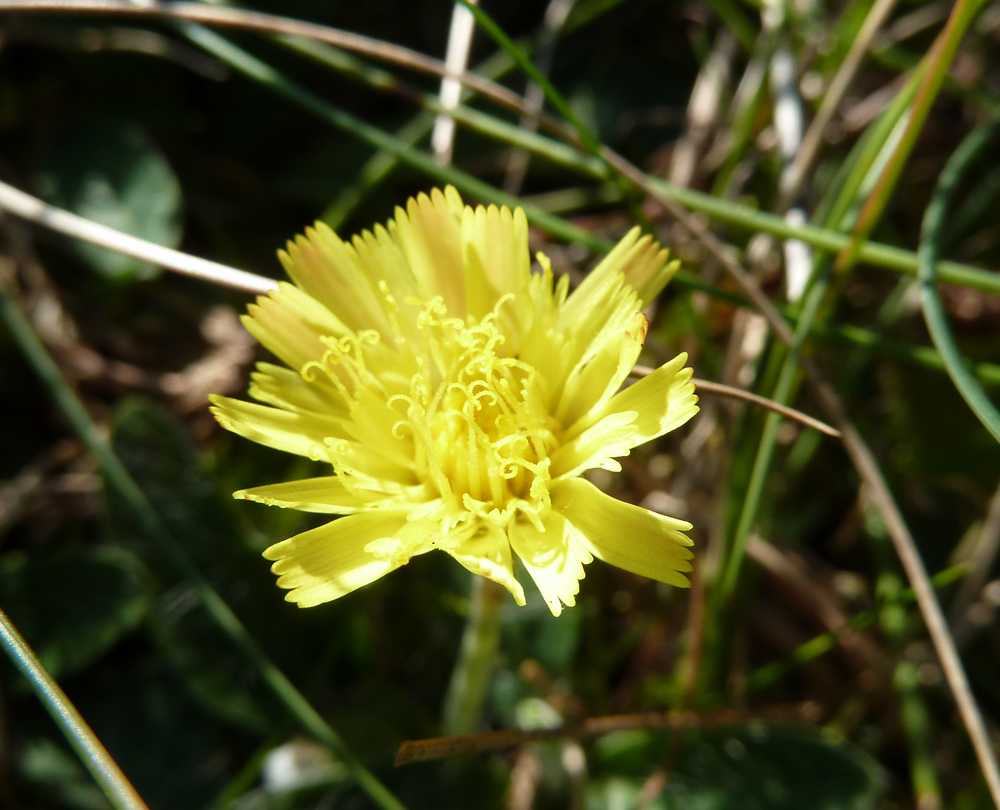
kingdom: Plantae
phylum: Tracheophyta
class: Magnoliopsida
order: Asterales
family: Asteraceae
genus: Pilosella
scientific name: Pilosella officinarum
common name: Mouse-ear hawkweed
